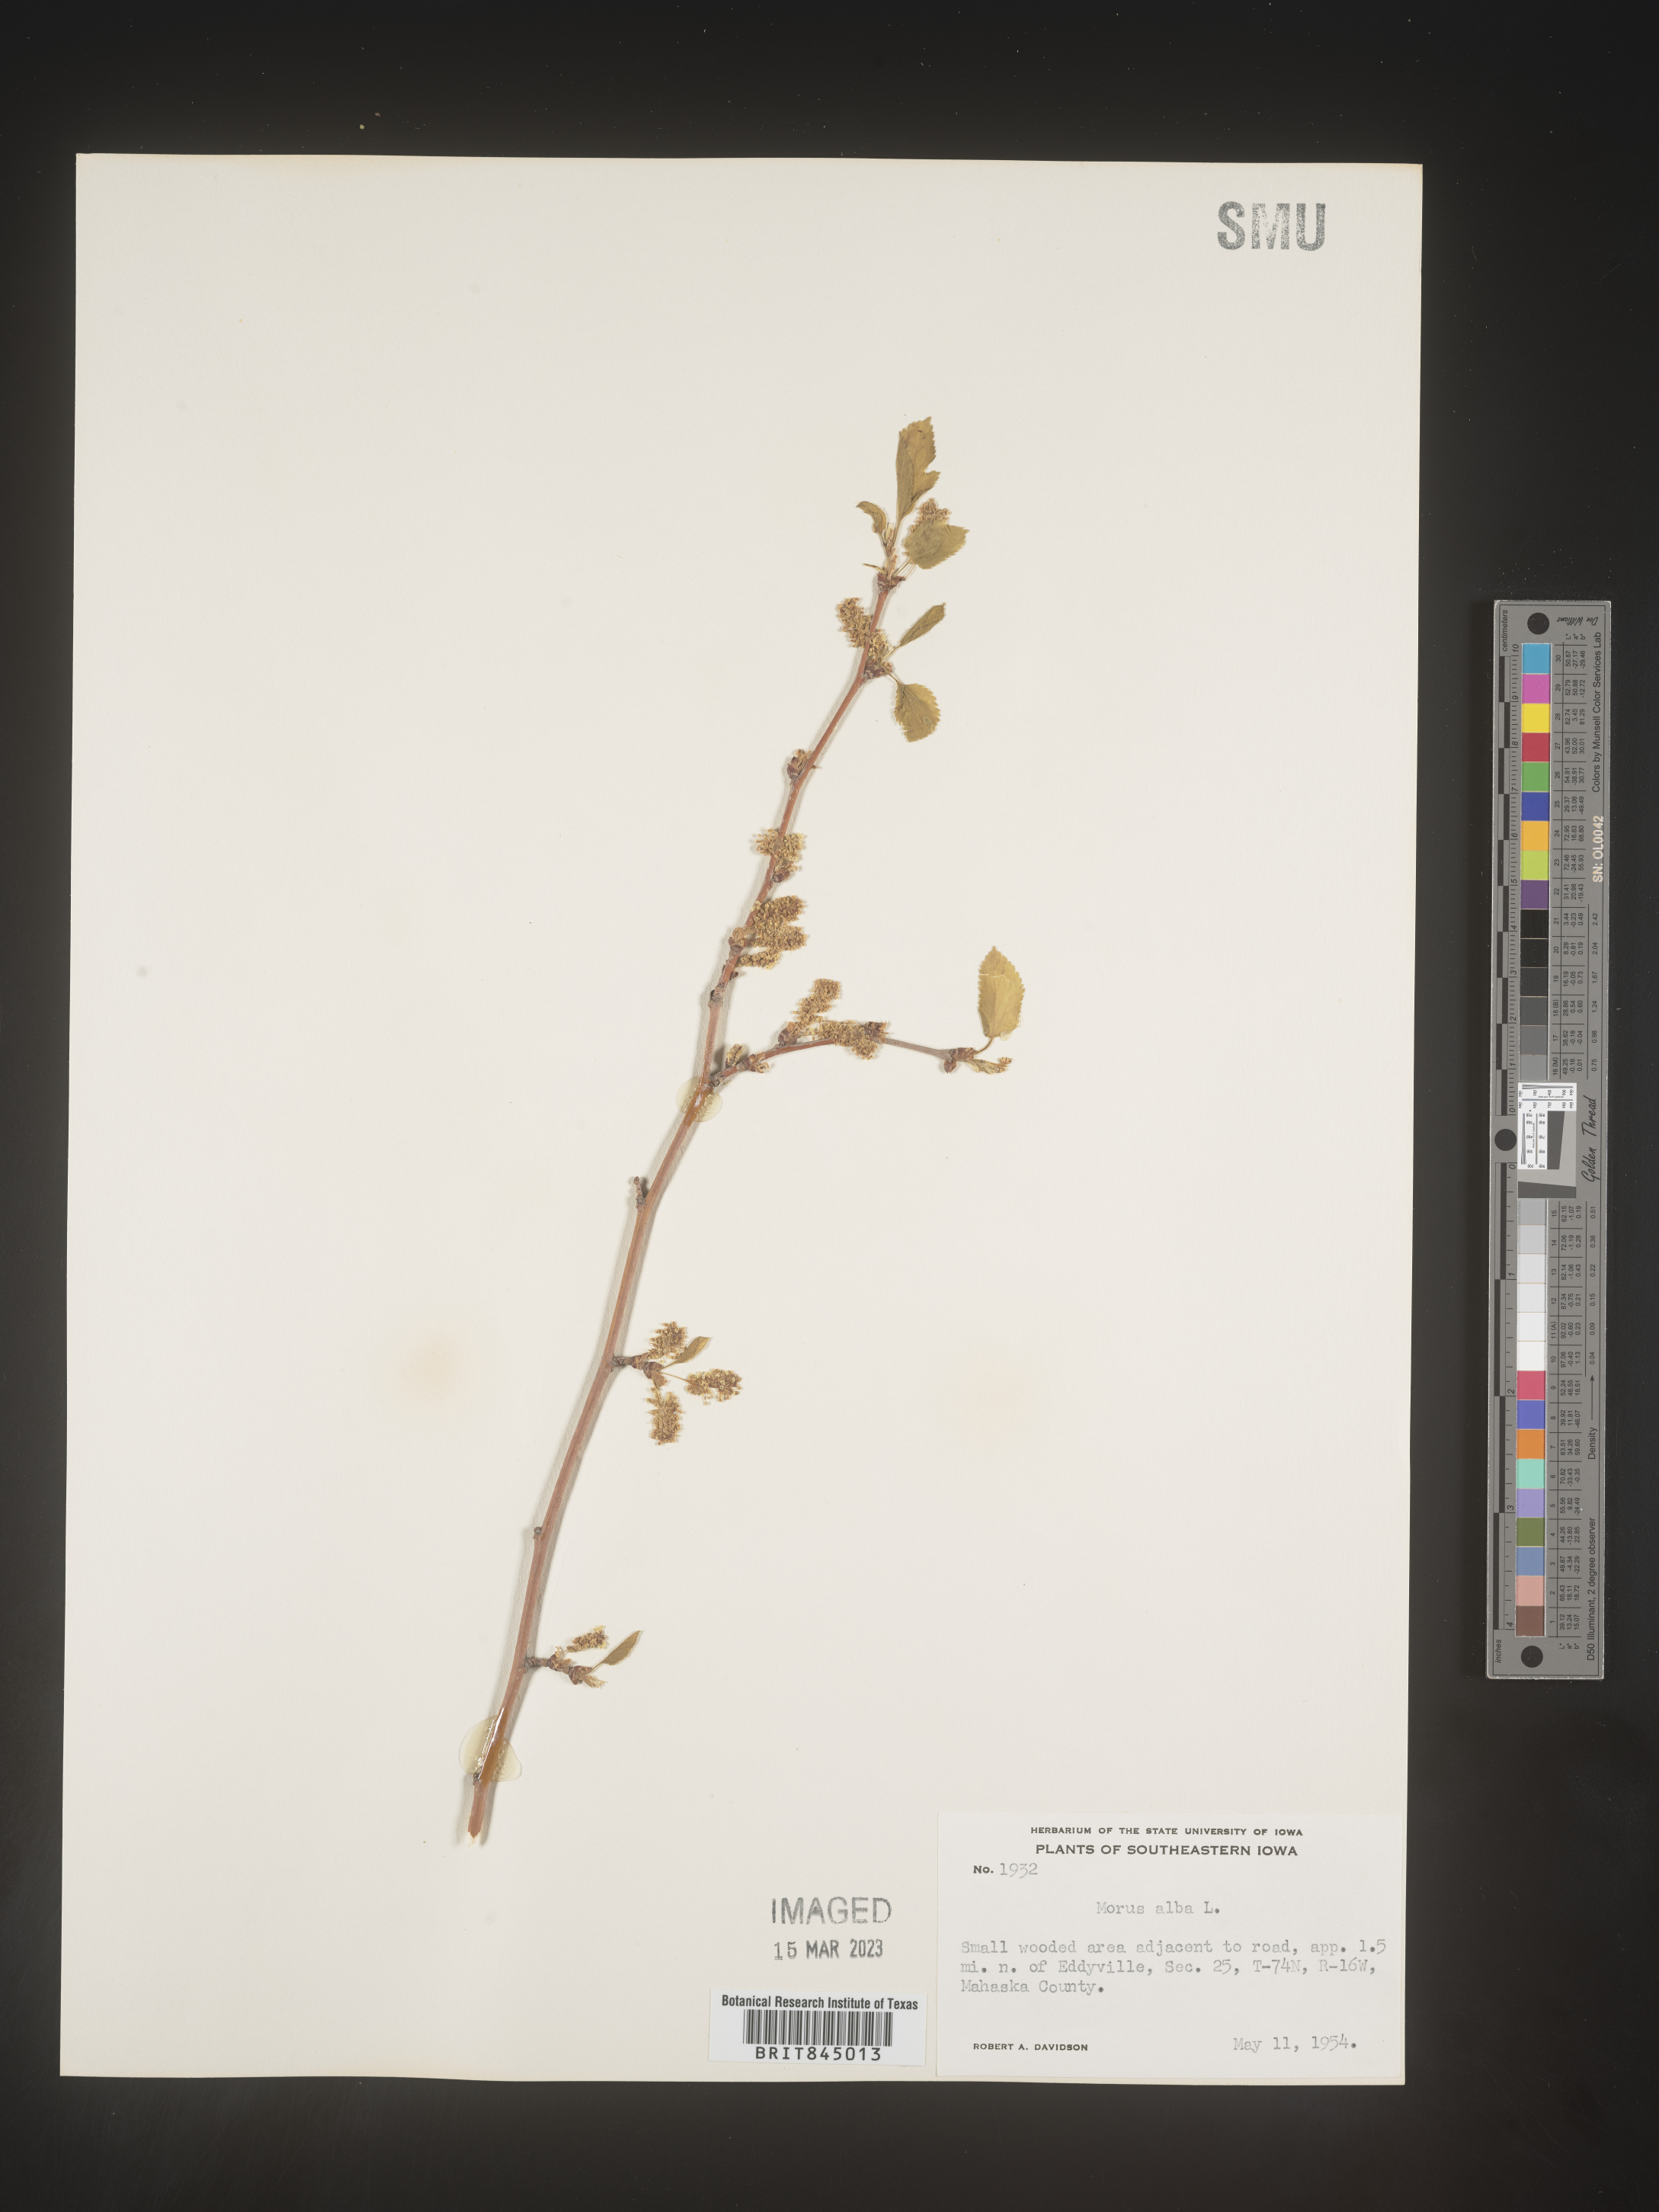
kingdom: Plantae
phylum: Tracheophyta
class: Magnoliopsida
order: Rosales
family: Moraceae
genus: Morus
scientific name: Morus alba
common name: White mulberry
